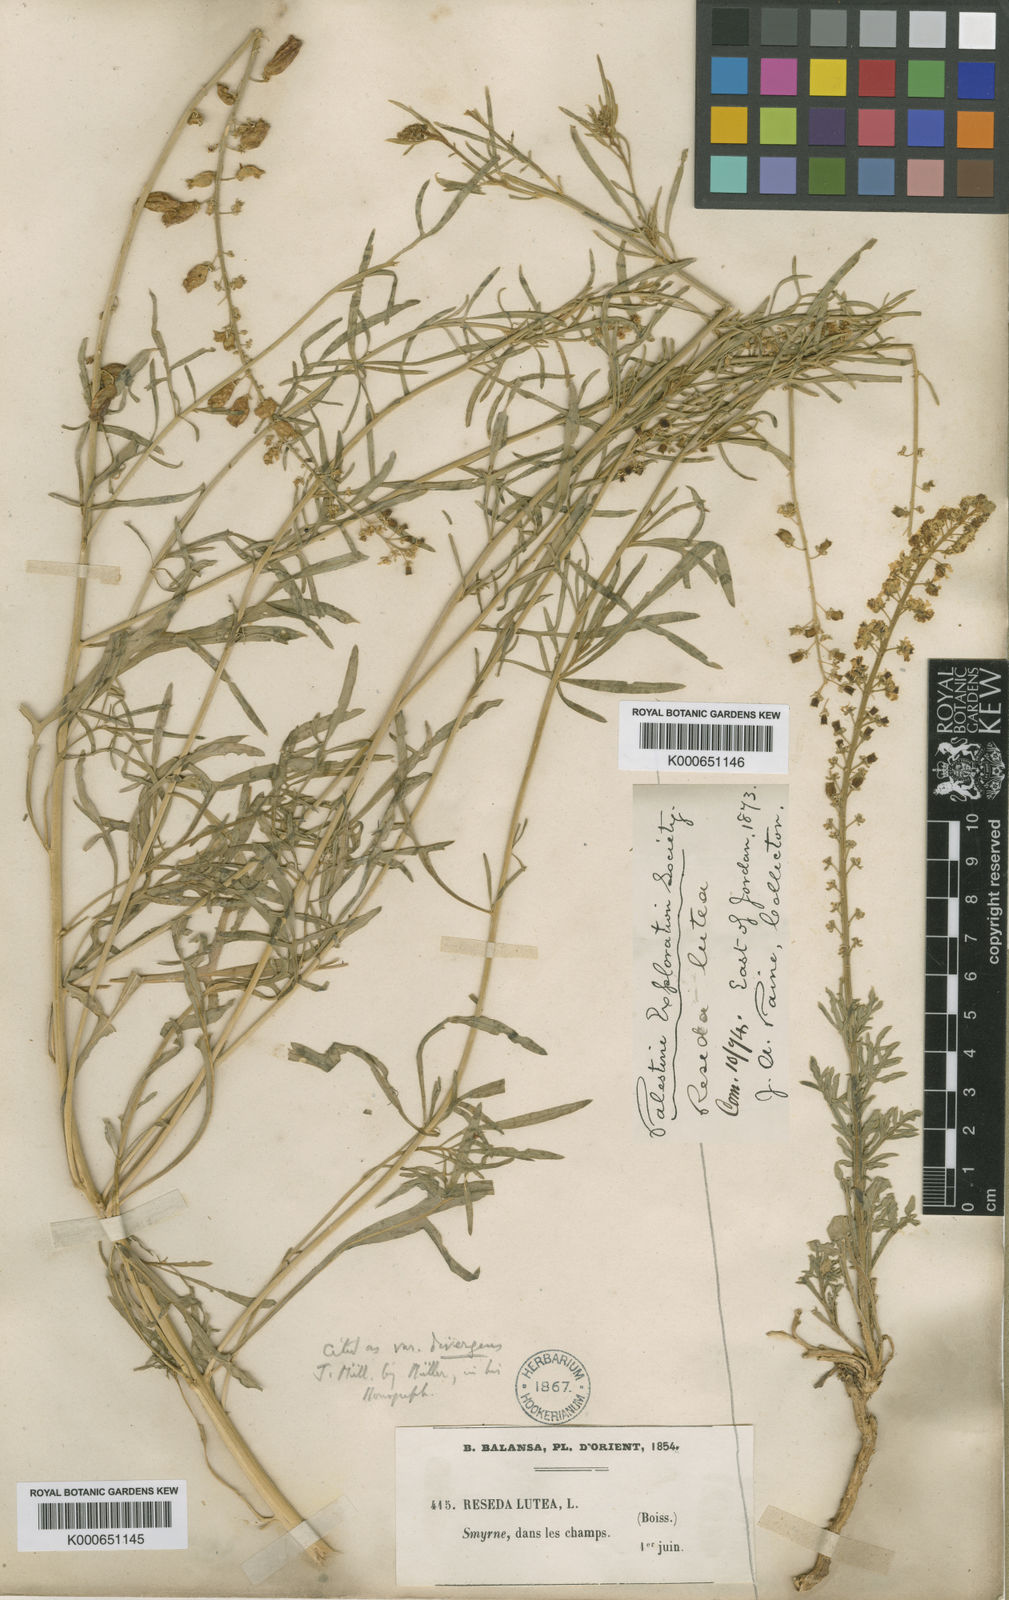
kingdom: Plantae
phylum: Tracheophyta
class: Magnoliopsida
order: Brassicales
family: Resedaceae
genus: Reseda
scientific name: Reseda lutea
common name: Wild mignonette
